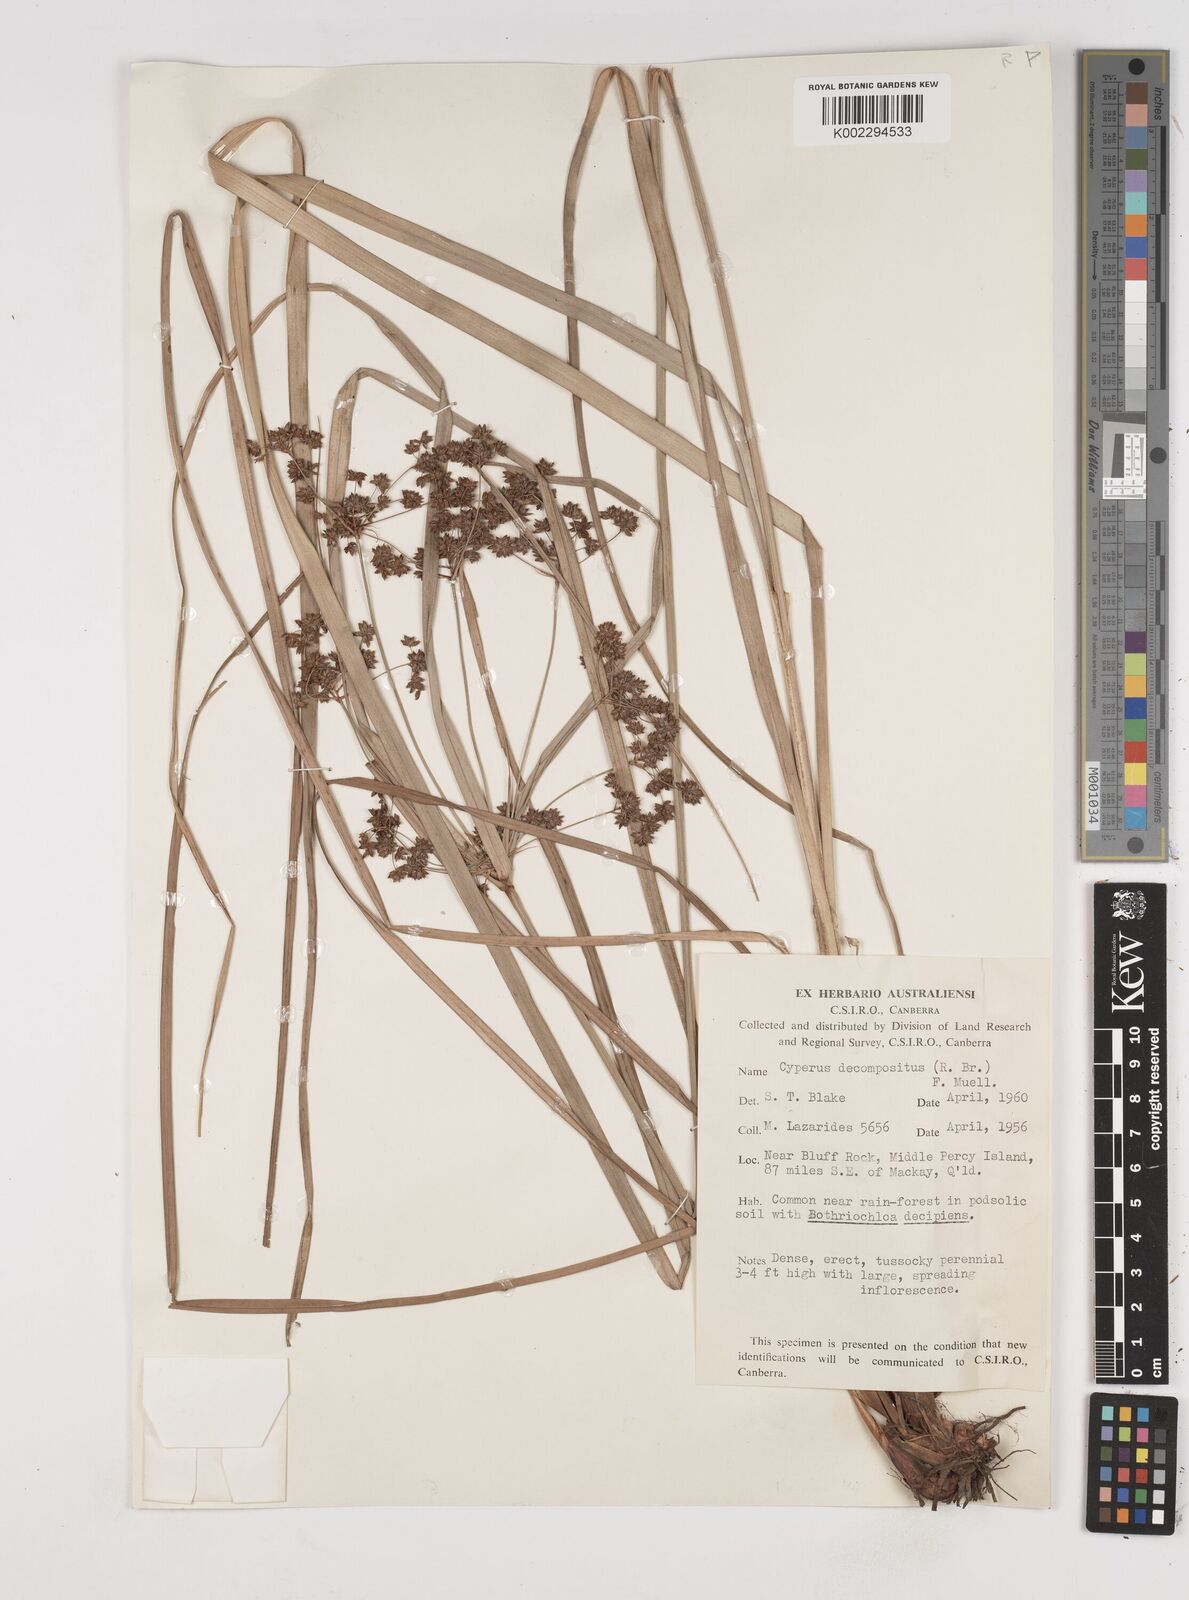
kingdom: Plantae
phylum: Tracheophyta
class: Liliopsida
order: Poales
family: Cyperaceae
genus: Cyperus
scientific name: Cyperus decompositus
